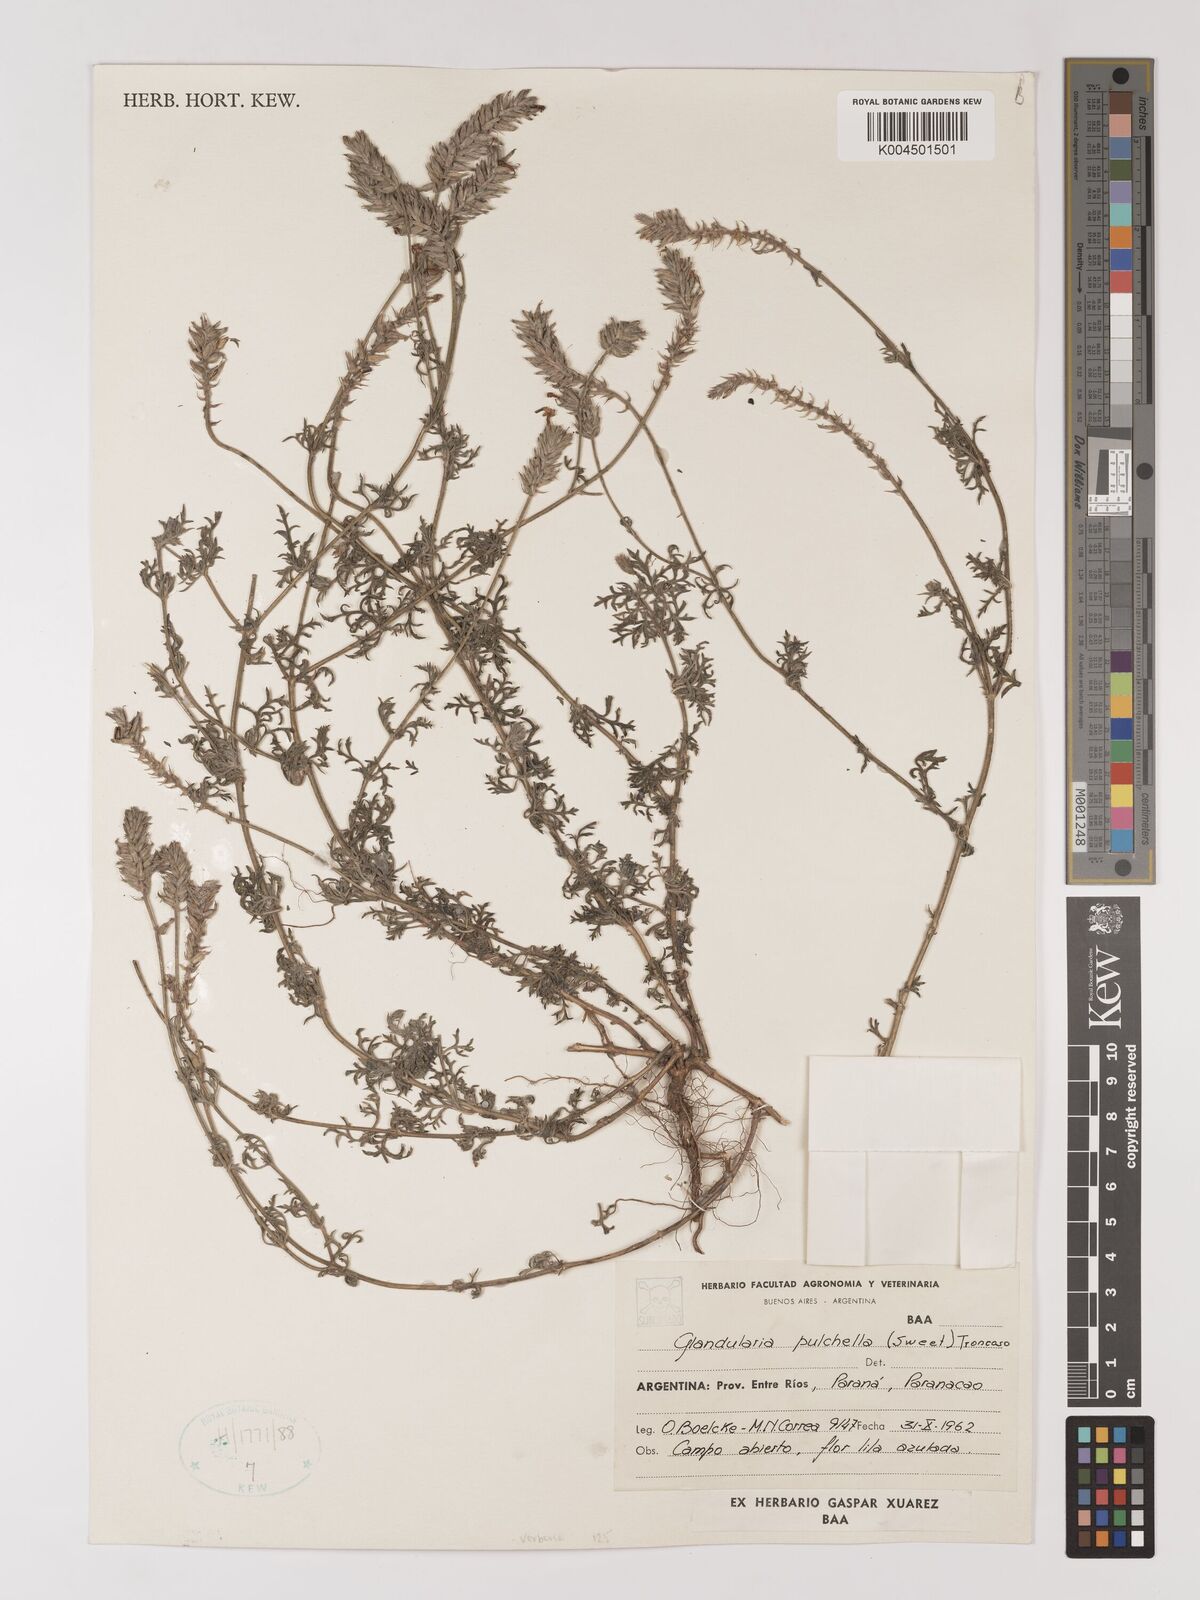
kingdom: Plantae
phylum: Tracheophyta
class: Magnoliopsida
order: Lamiales
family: Verbenaceae
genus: Verbena
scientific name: Verbena tenera
